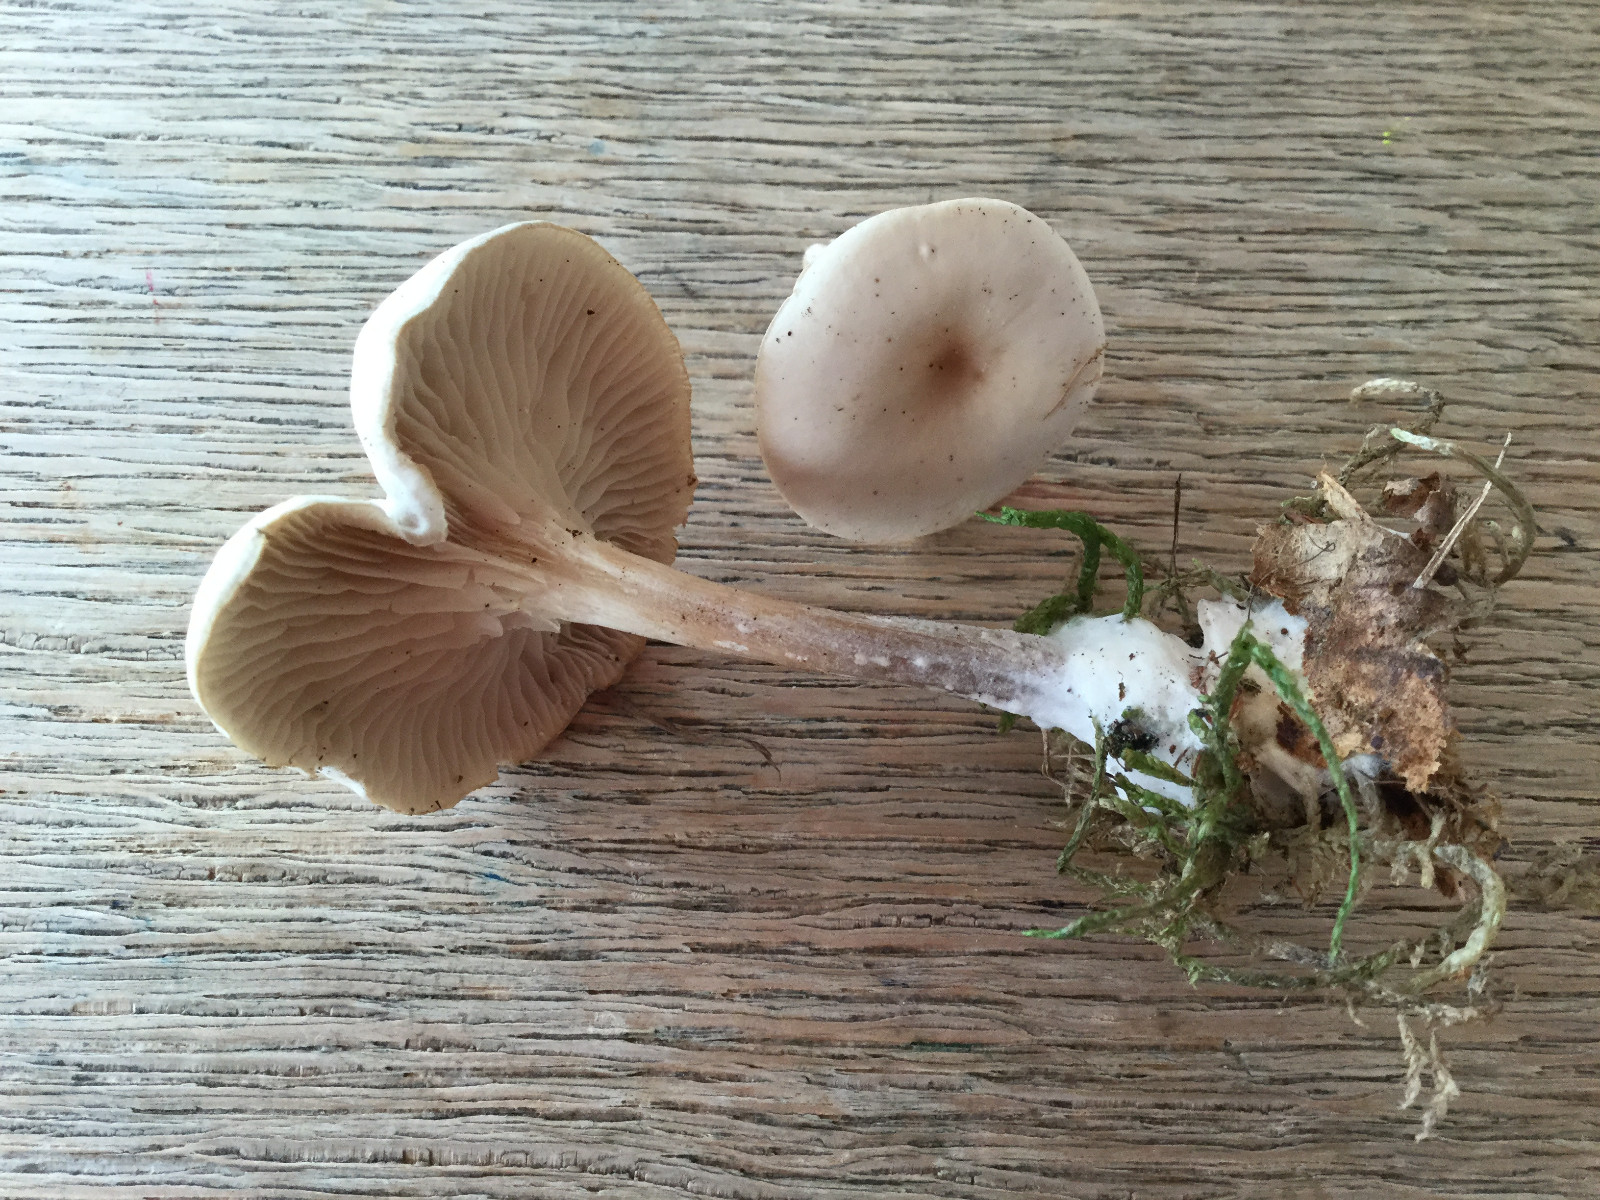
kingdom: Fungi
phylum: Basidiomycota
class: Agaricomycetes
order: Agaricales
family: Tricholomataceae
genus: Clitocybe
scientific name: Clitocybe metachroa
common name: grå tragthat
